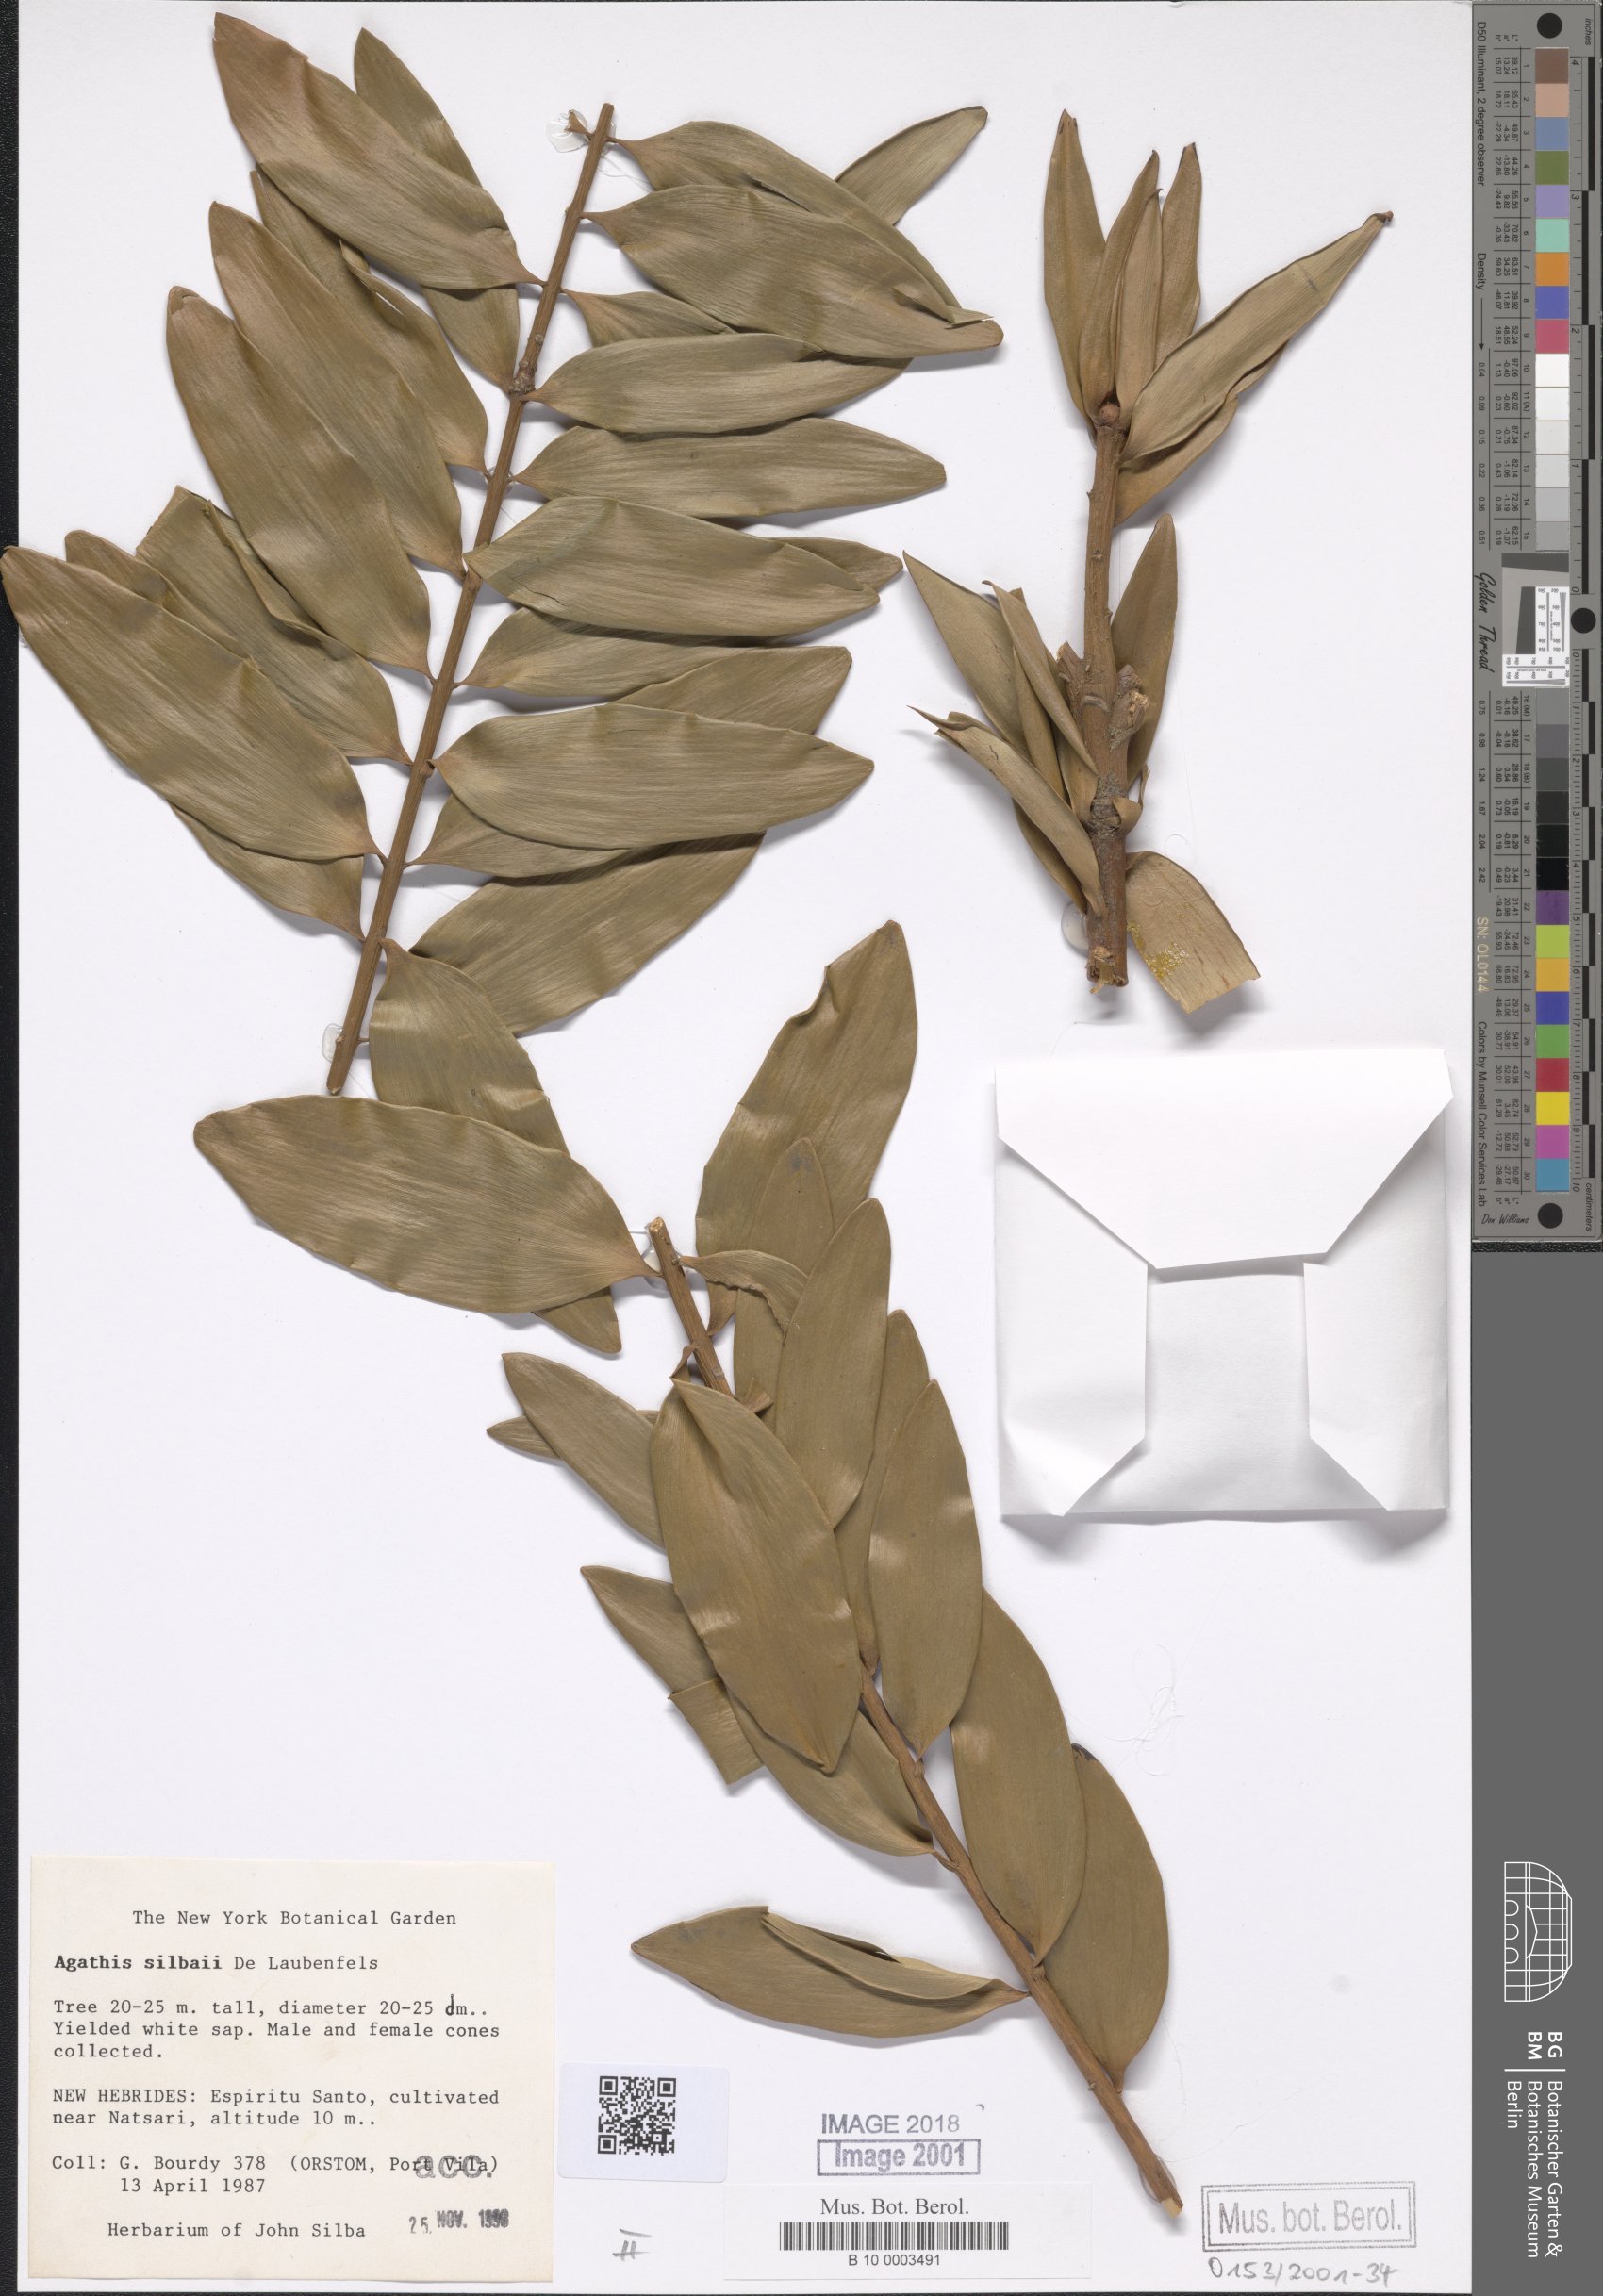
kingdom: Plantae
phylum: Tracheophyta
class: Pinopsida
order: Pinales
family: Araucariaceae
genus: Agathis
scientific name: Agathis silbae
